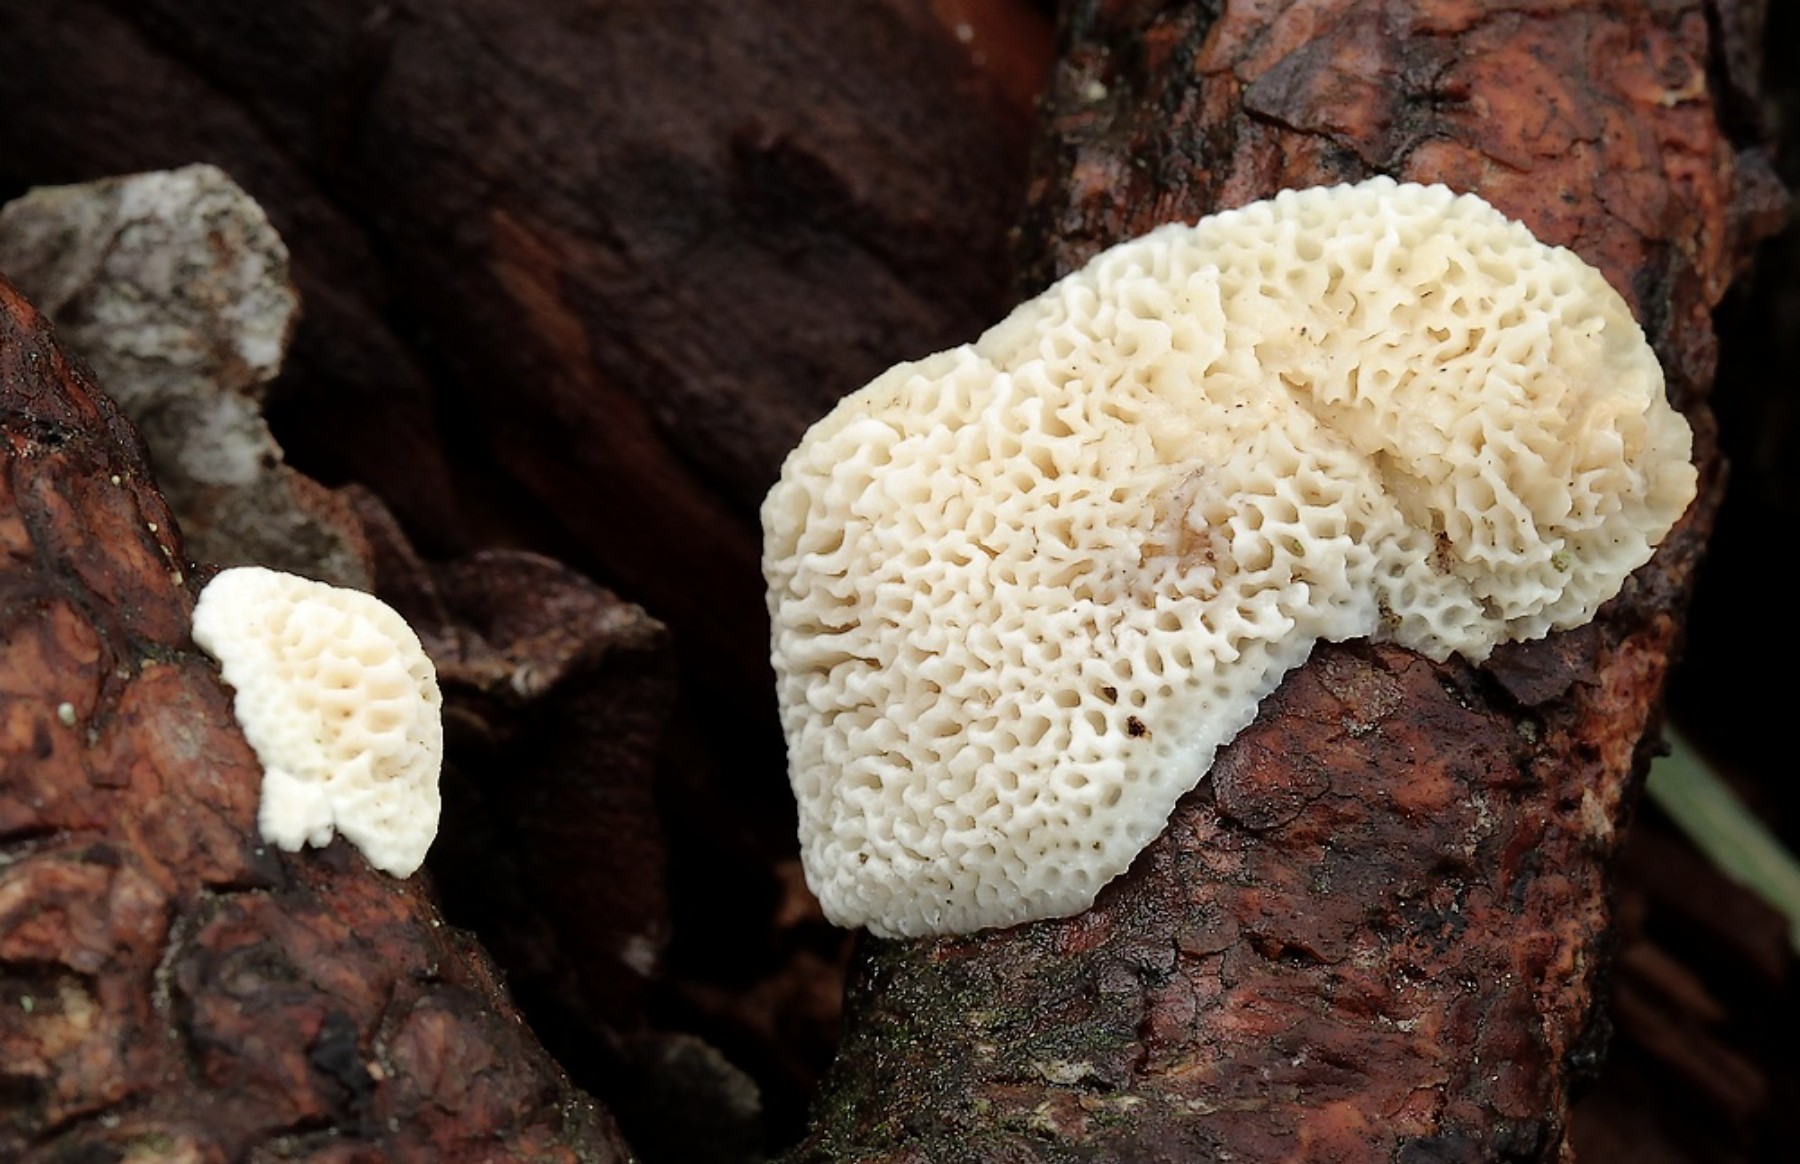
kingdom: Fungi
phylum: Basidiomycota
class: Agaricomycetes
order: Polyporales
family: Fomitopsidaceae
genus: Fomitopsis
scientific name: Fomitopsis
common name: fyrre-skiveporesvamp
